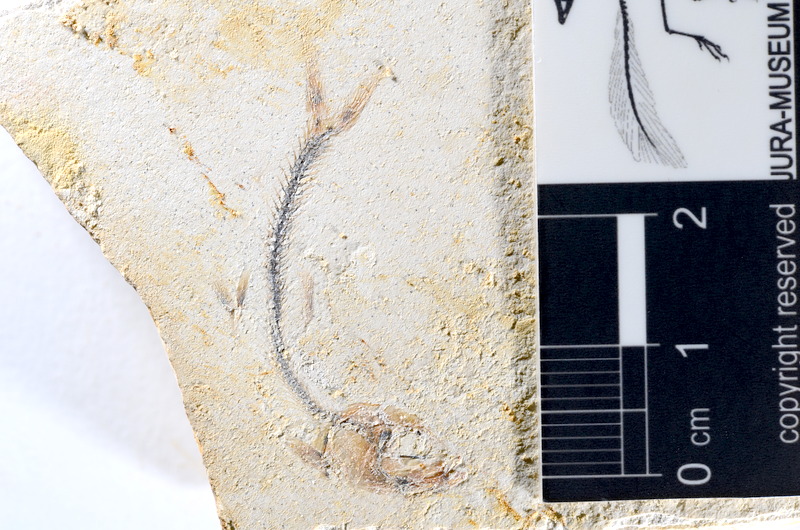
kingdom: Animalia
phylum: Chordata
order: Salmoniformes
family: Orthogonikleithridae
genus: Orthogonikleithrus
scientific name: Orthogonikleithrus hoelli
